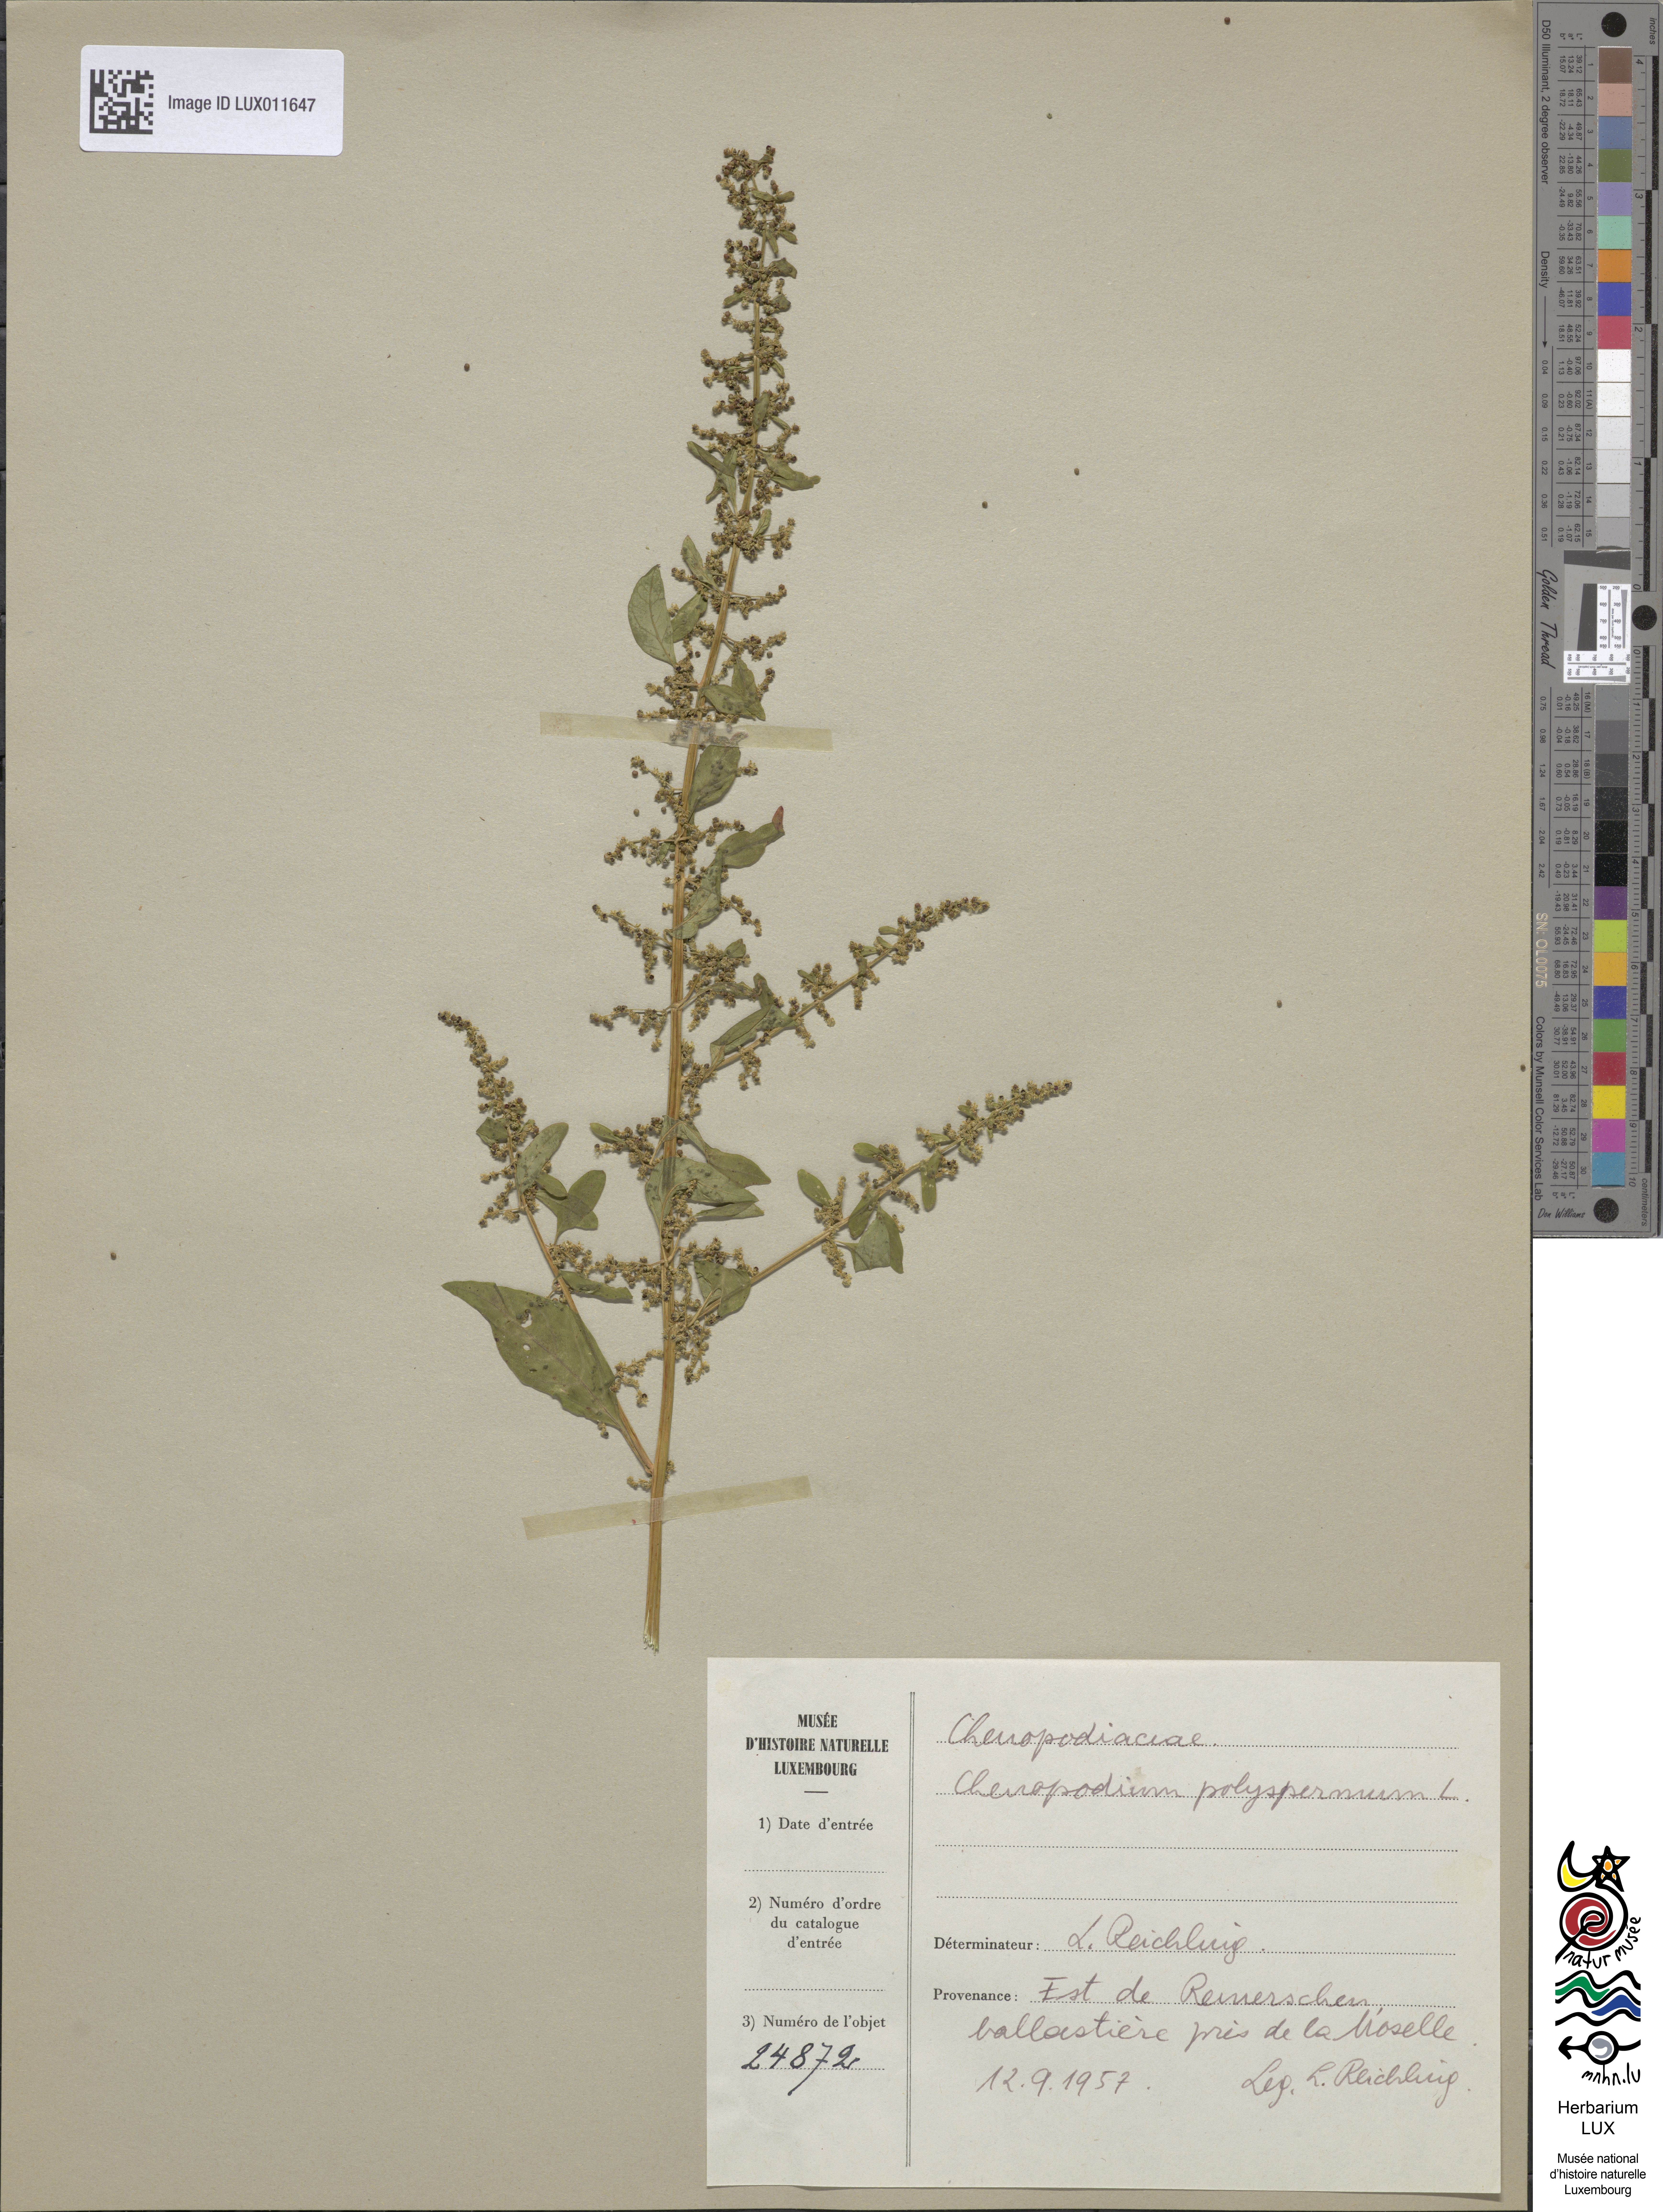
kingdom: Plantae
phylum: Tracheophyta
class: Magnoliopsida
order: Caryophyllales
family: Amaranthaceae
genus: Lipandra
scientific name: Lipandra polysperma
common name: Many-seed goosefoot
